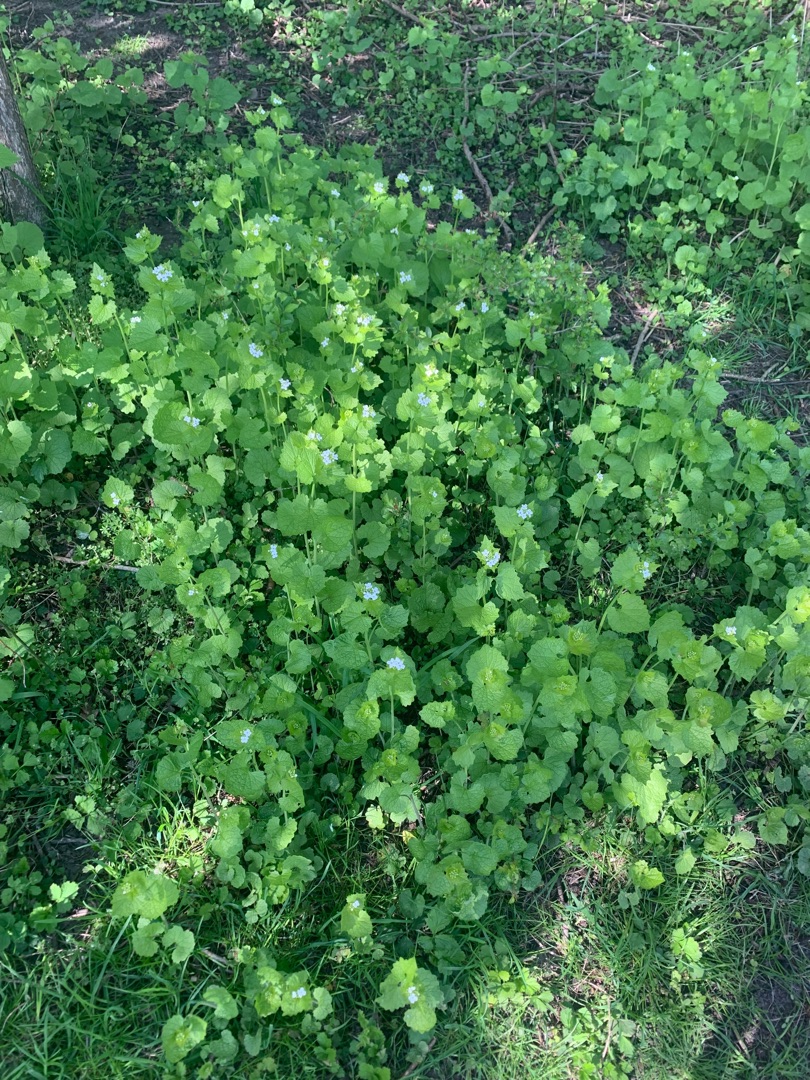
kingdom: Plantae
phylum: Tracheophyta
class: Magnoliopsida
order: Brassicales
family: Brassicaceae
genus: Alliaria
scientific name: Alliaria petiolata
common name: Løgkarse
